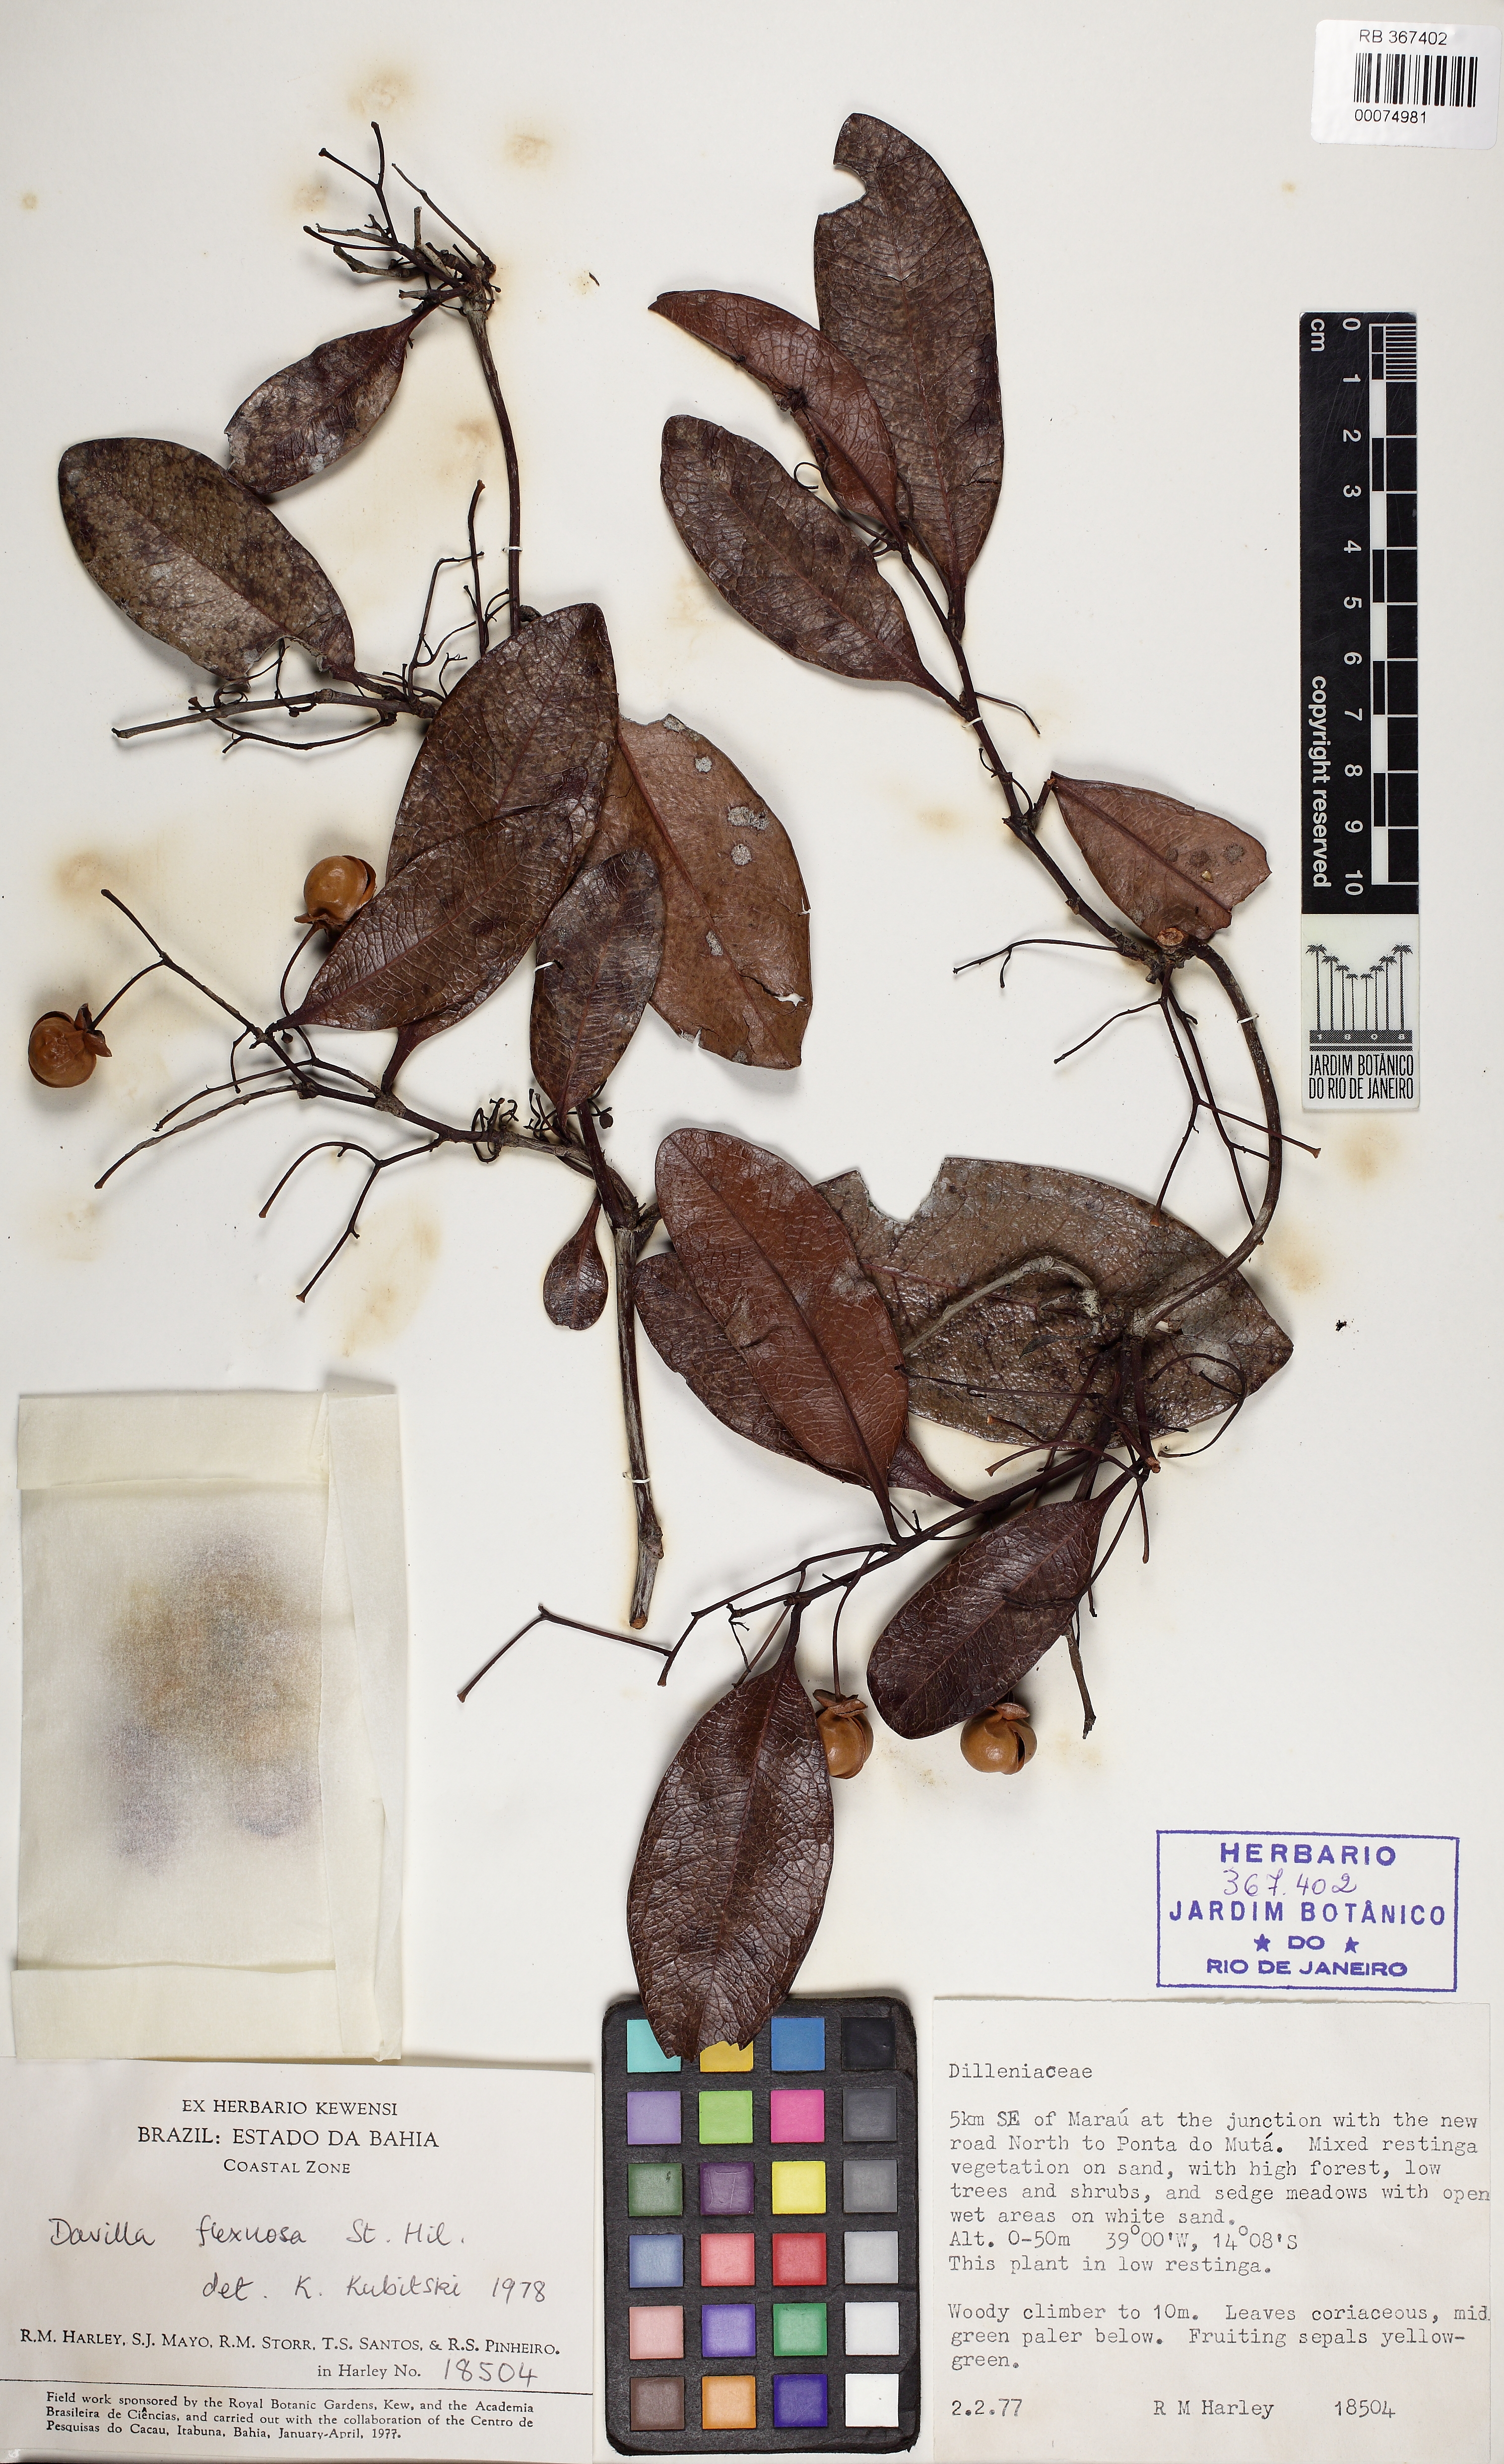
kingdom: Plantae
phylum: Tracheophyta
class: Magnoliopsida
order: Dilleniales
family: Dilleniaceae
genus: Davilla
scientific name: Davilla flexuosa
